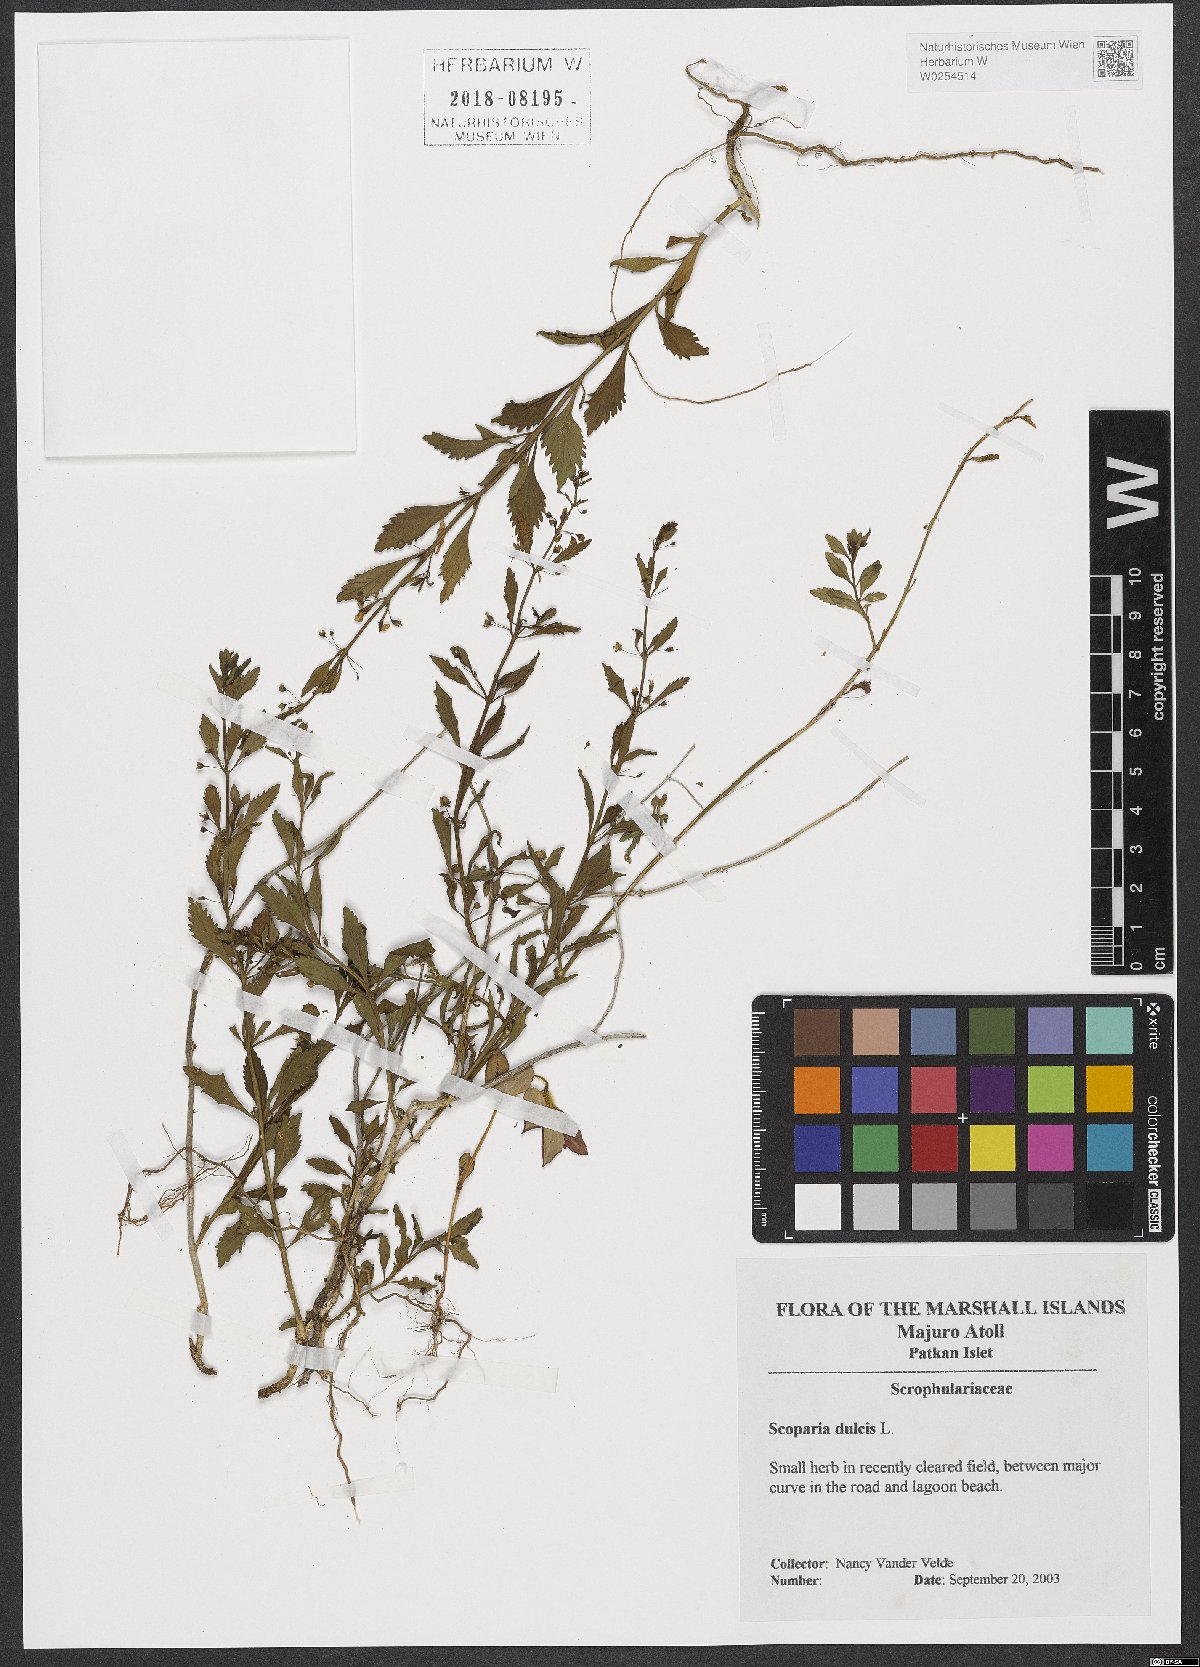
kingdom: Plantae
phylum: Tracheophyta
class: Magnoliopsida
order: Lamiales
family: Plantaginaceae
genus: Scoparia
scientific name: Scoparia dulcis
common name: Scoparia-weed
